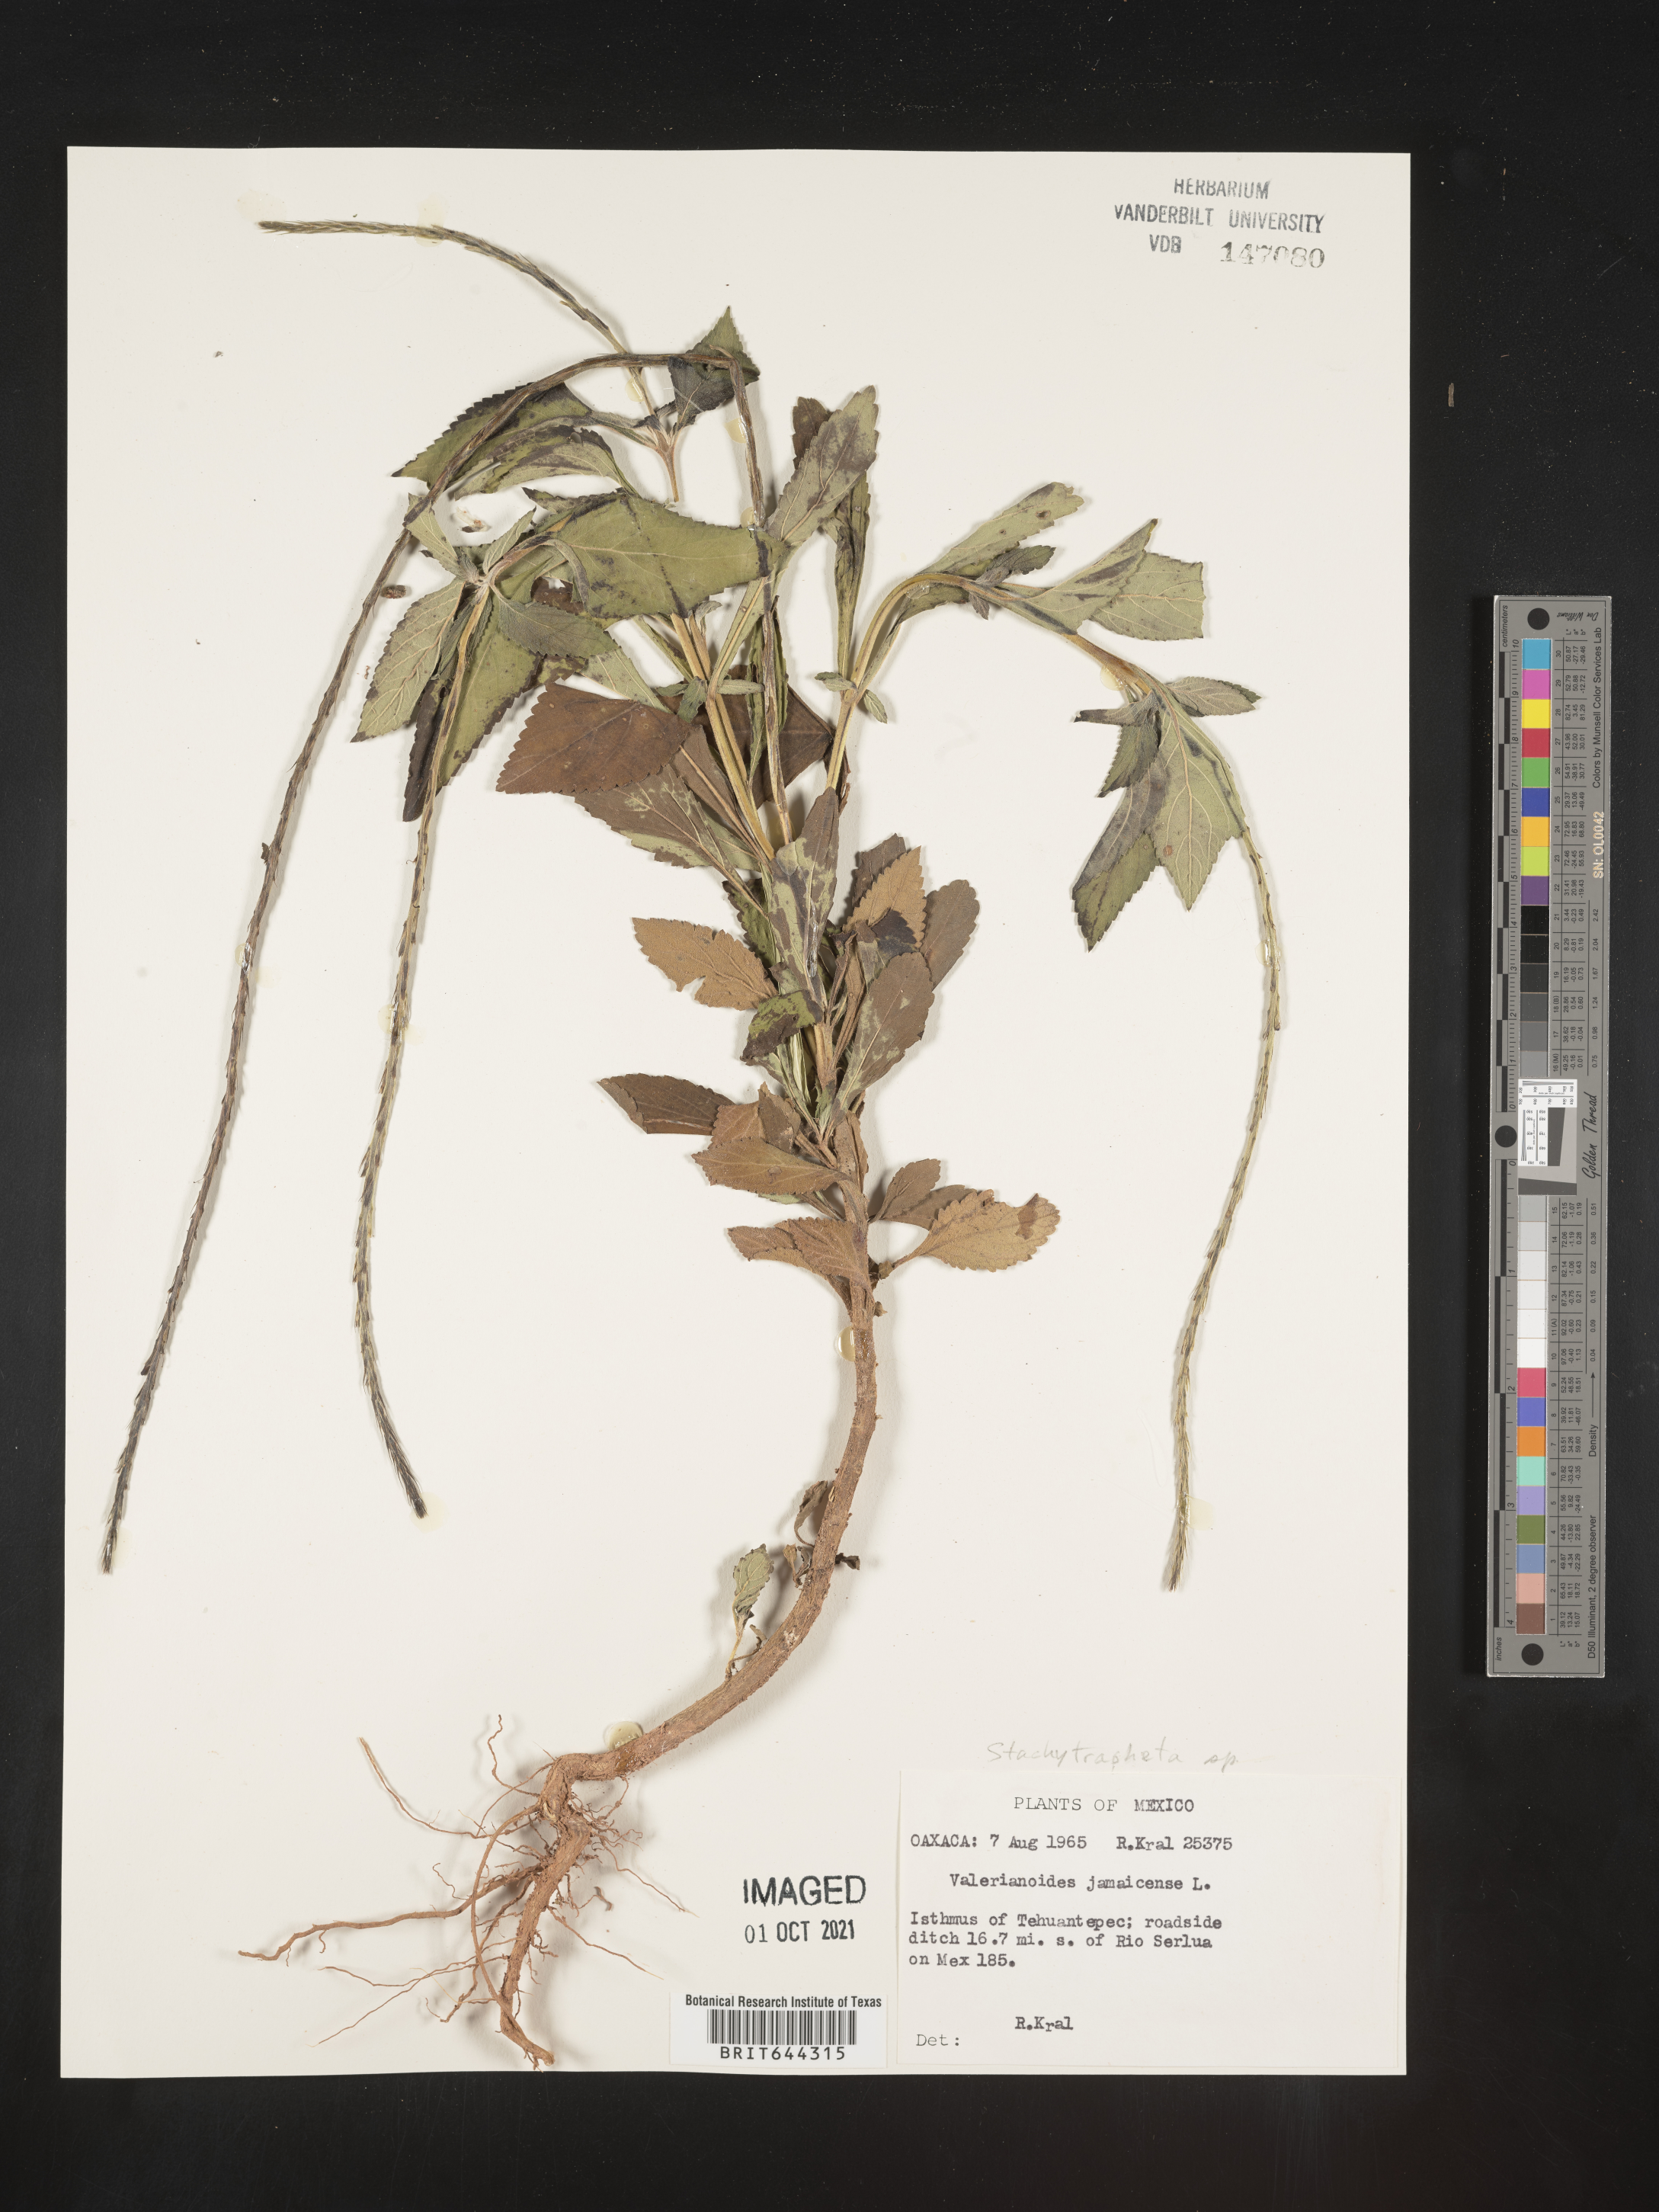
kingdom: Plantae
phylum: Tracheophyta
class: Magnoliopsida
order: Lamiales
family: Verbenaceae
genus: Stachytarpheta
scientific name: Stachytarpheta
